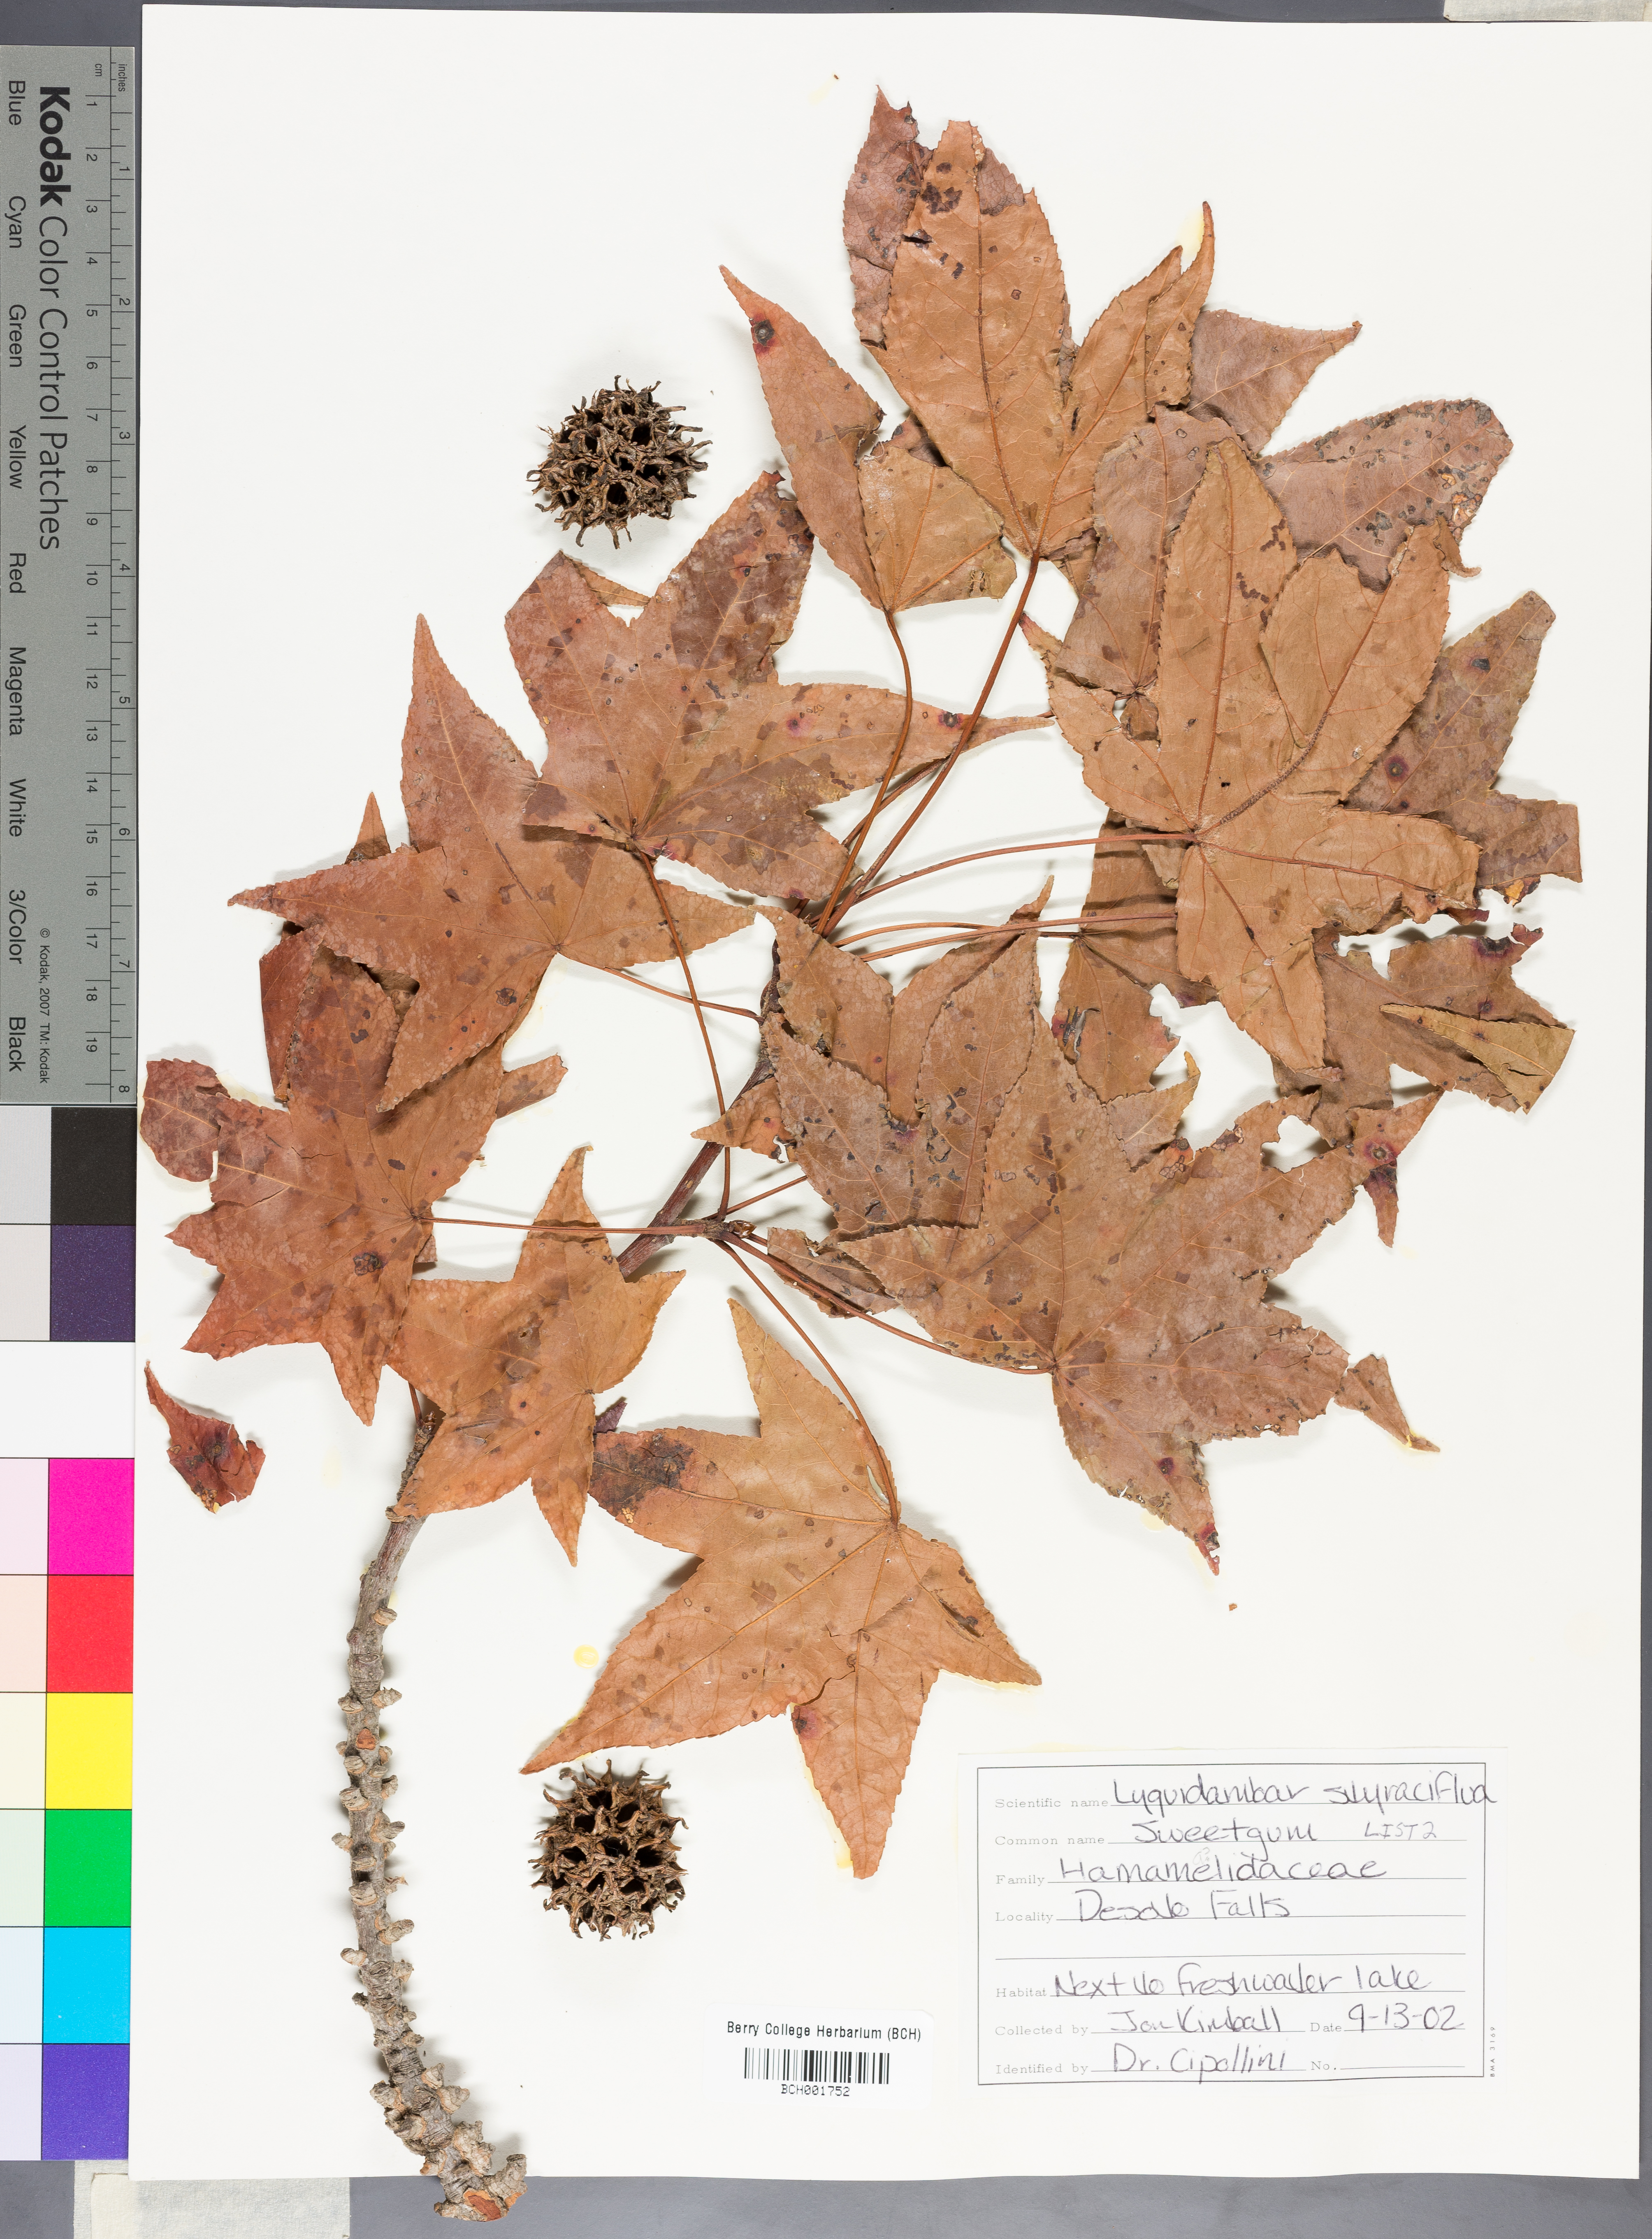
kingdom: Plantae
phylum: Tracheophyta
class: Magnoliopsida
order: Saxifragales
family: Altingiaceae
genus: Liquidambar
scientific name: Liquidambar styraciflua
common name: Sweet gum
